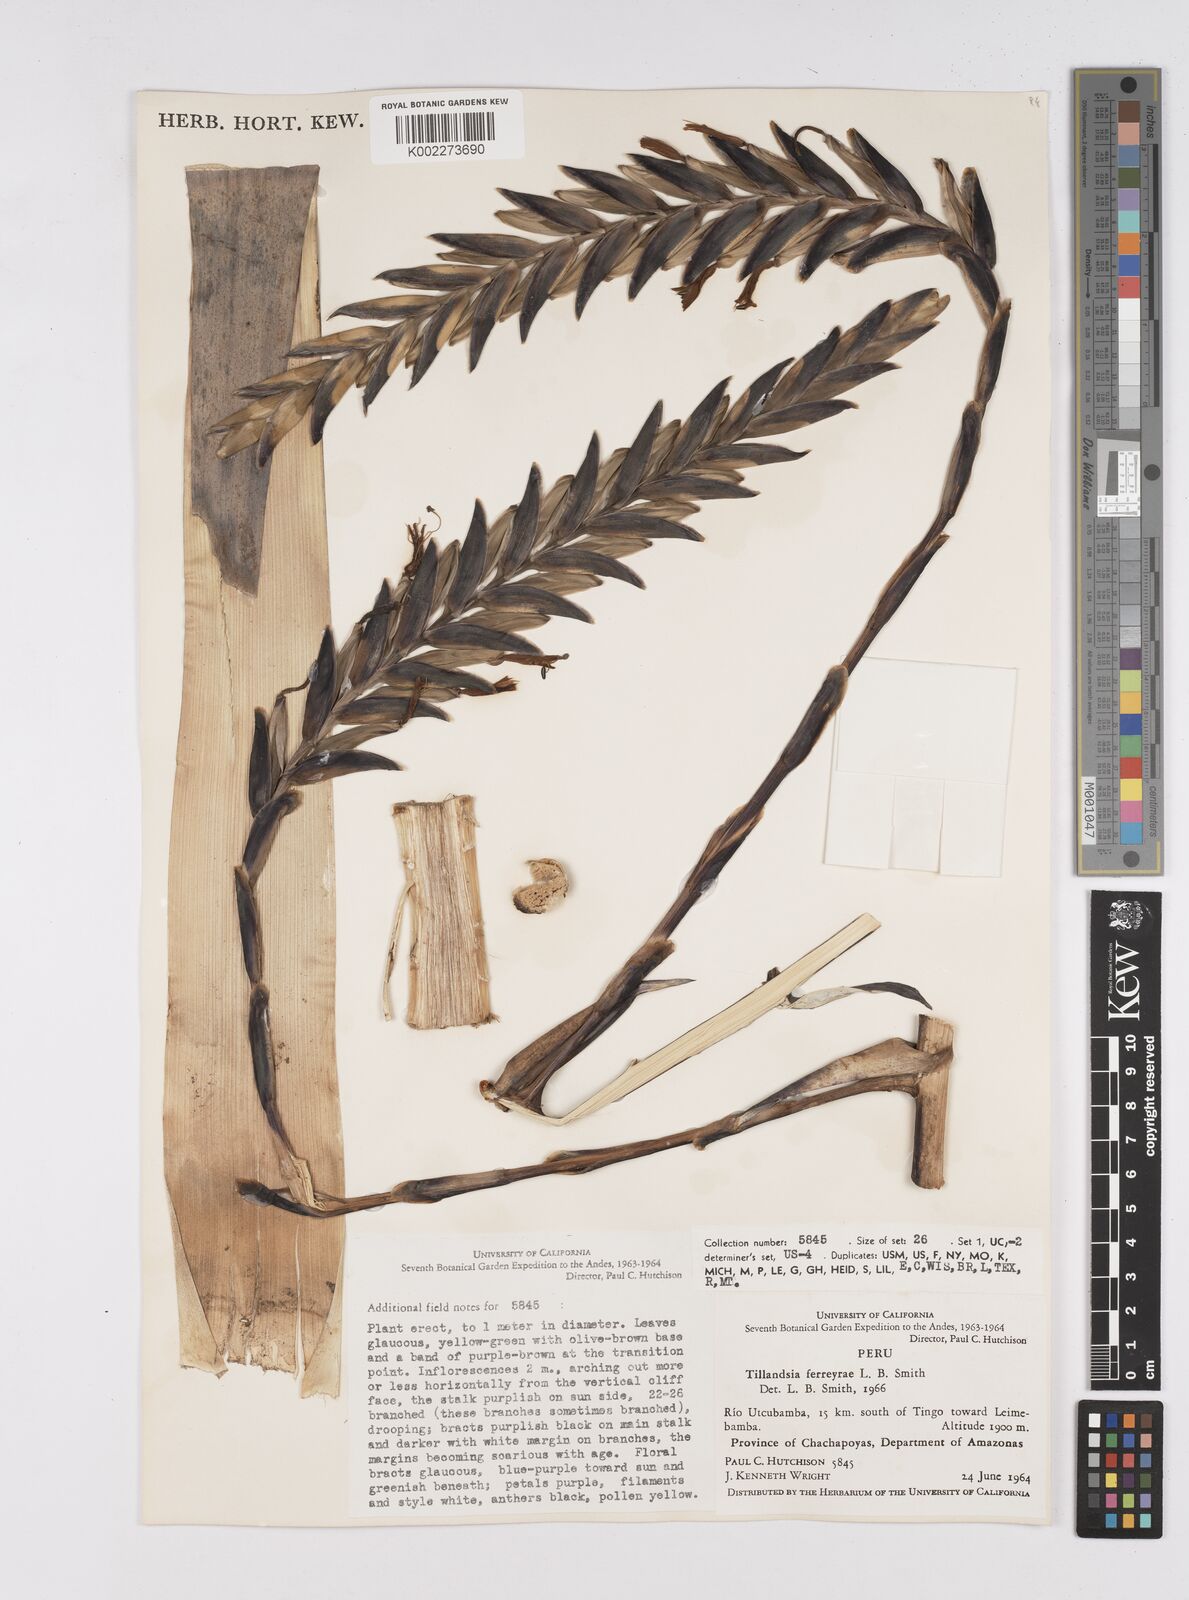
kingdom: Plantae
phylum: Tracheophyta
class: Liliopsida
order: Poales
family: Bromeliaceae
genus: Tillandsia
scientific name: Tillandsia ferreyrae
